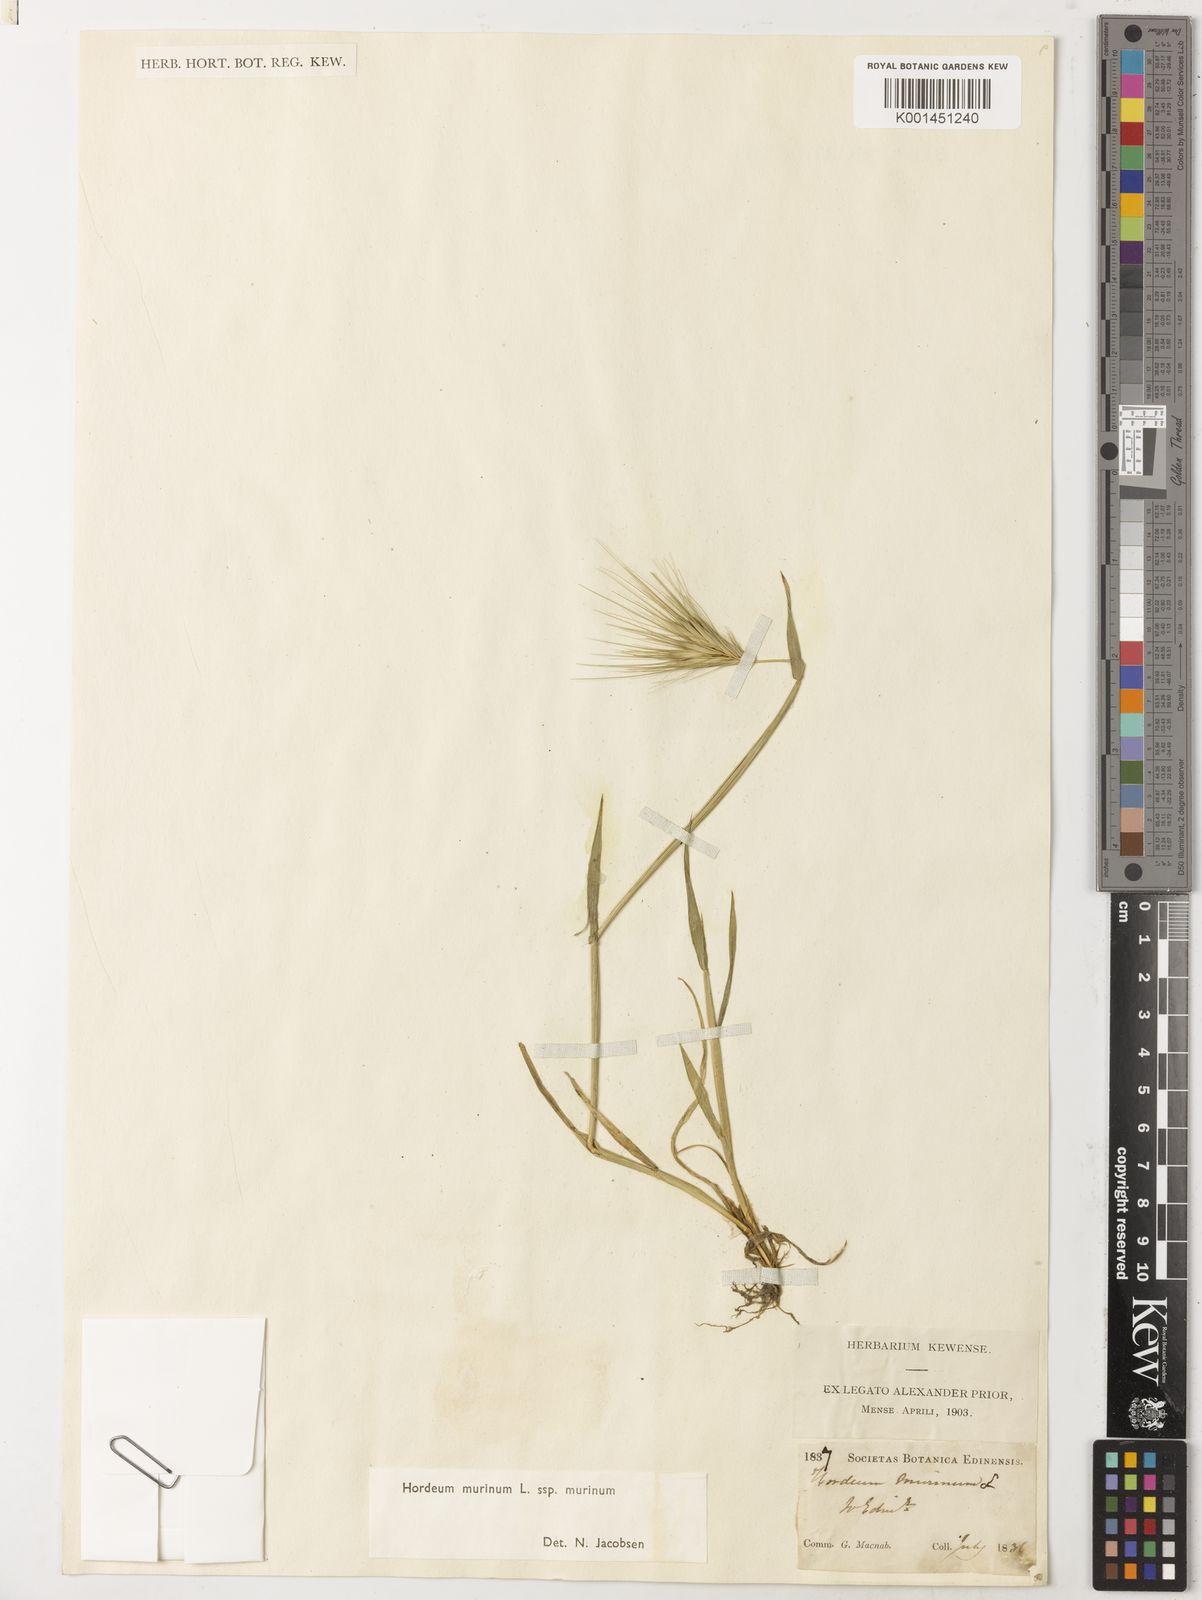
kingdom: Plantae
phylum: Tracheophyta
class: Liliopsida
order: Poales
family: Poaceae
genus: Hordeum
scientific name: Hordeum murinum
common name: Wall barley
